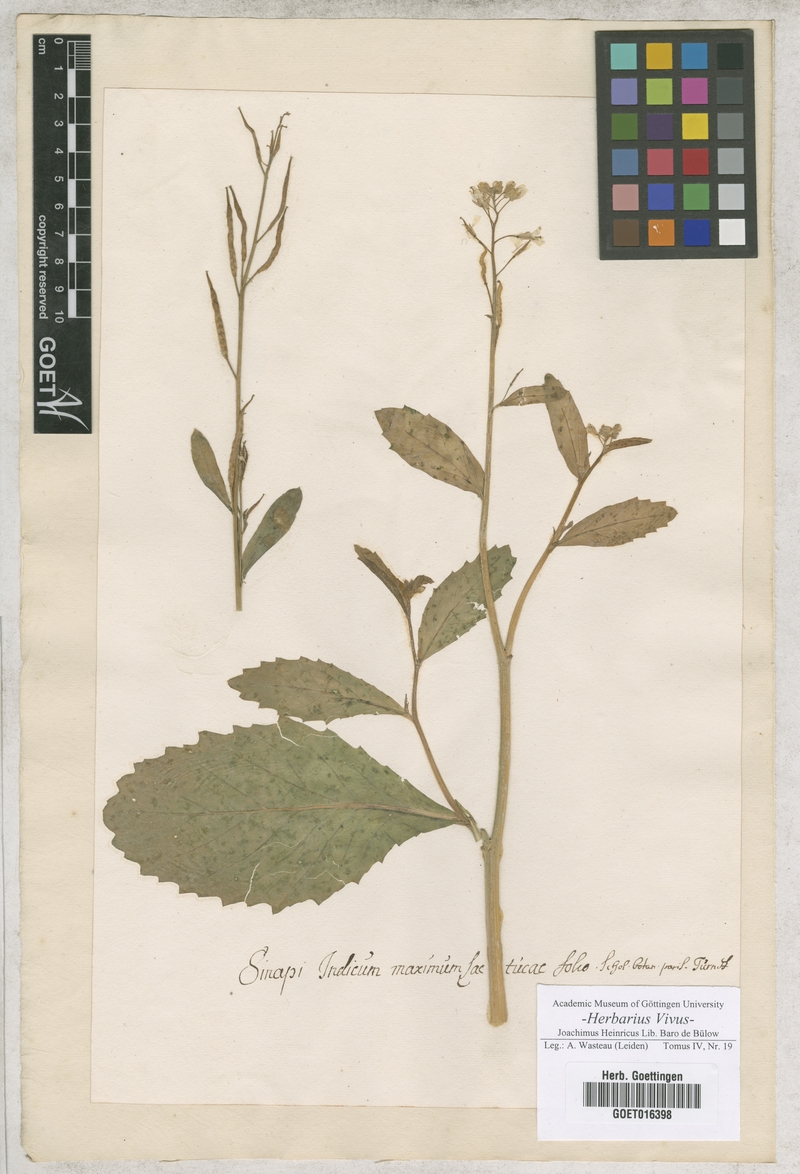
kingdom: Plantae
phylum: Tracheophyta
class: Magnoliopsida
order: Brassicales
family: Brassicaceae
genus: Brassica
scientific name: Brassica juncea
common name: Brown mustard
